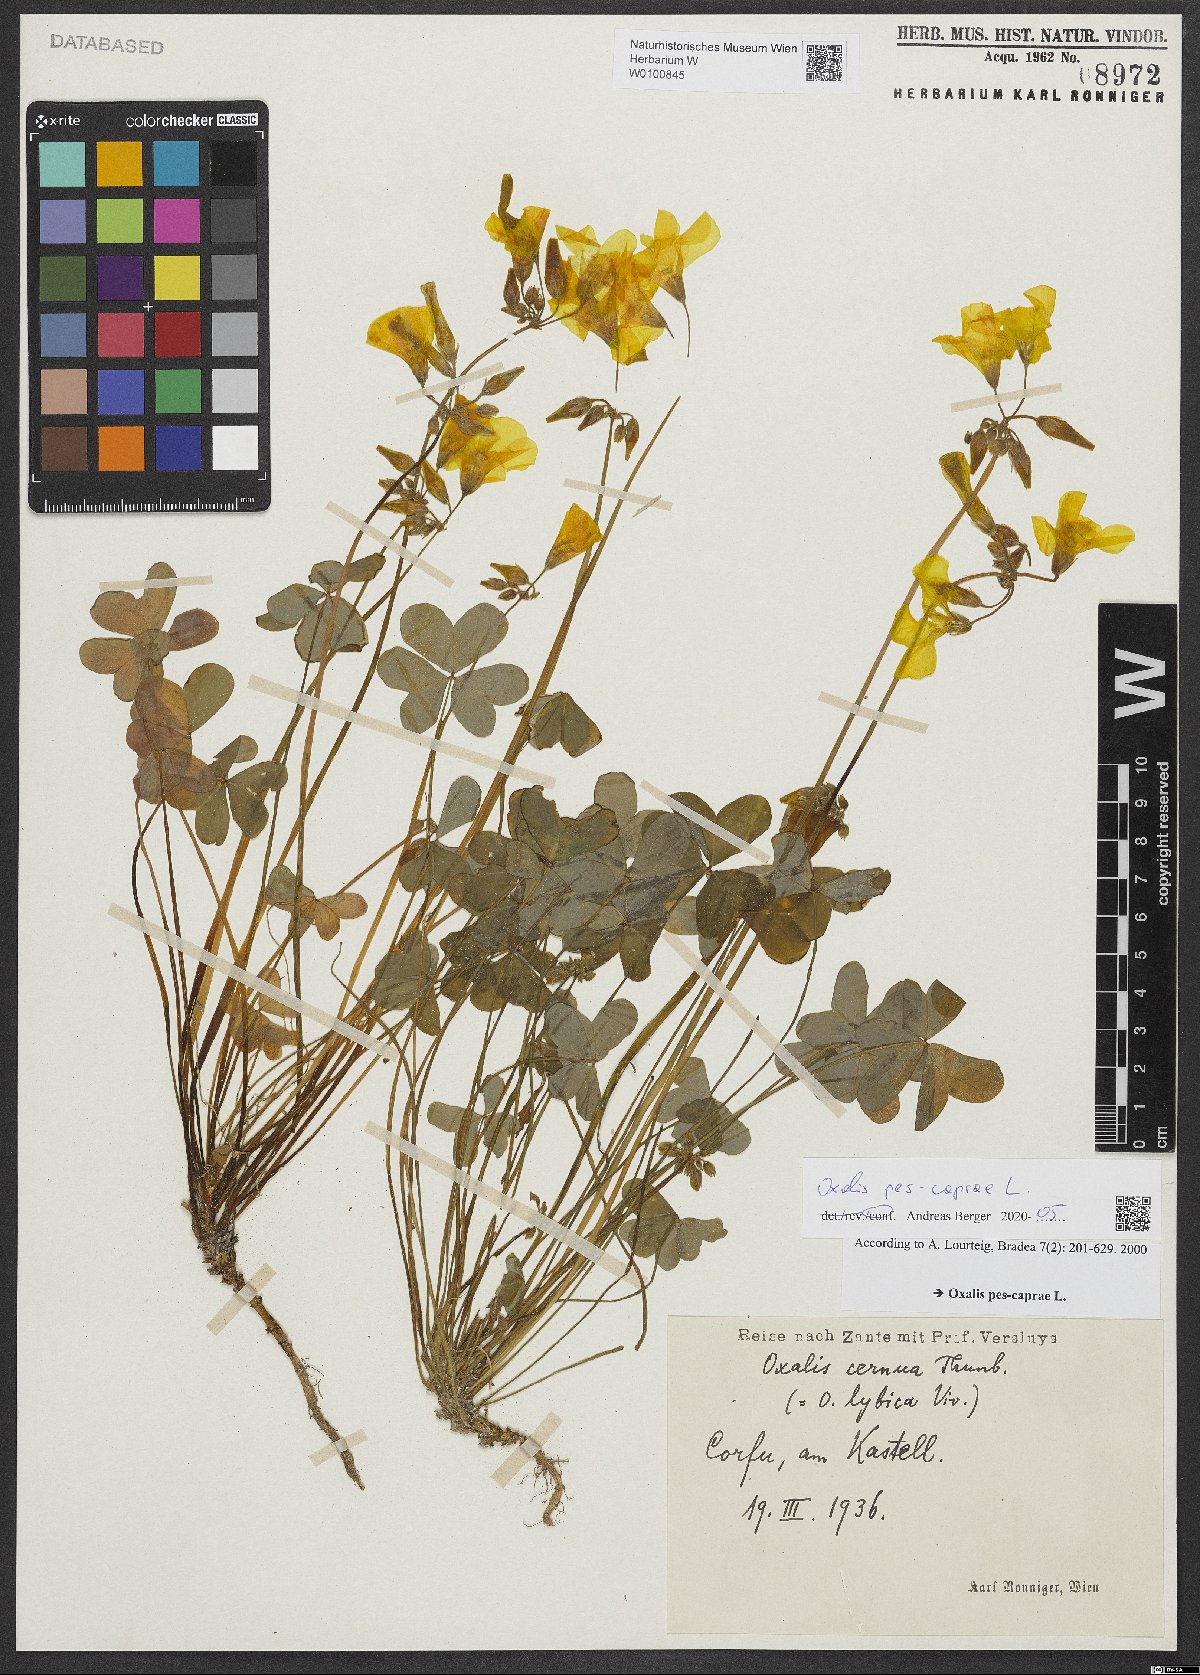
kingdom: Plantae
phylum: Tracheophyta
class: Magnoliopsida
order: Oxalidales
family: Oxalidaceae
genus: Oxalis
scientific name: Oxalis pes-caprae
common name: Bermuda-buttercup
